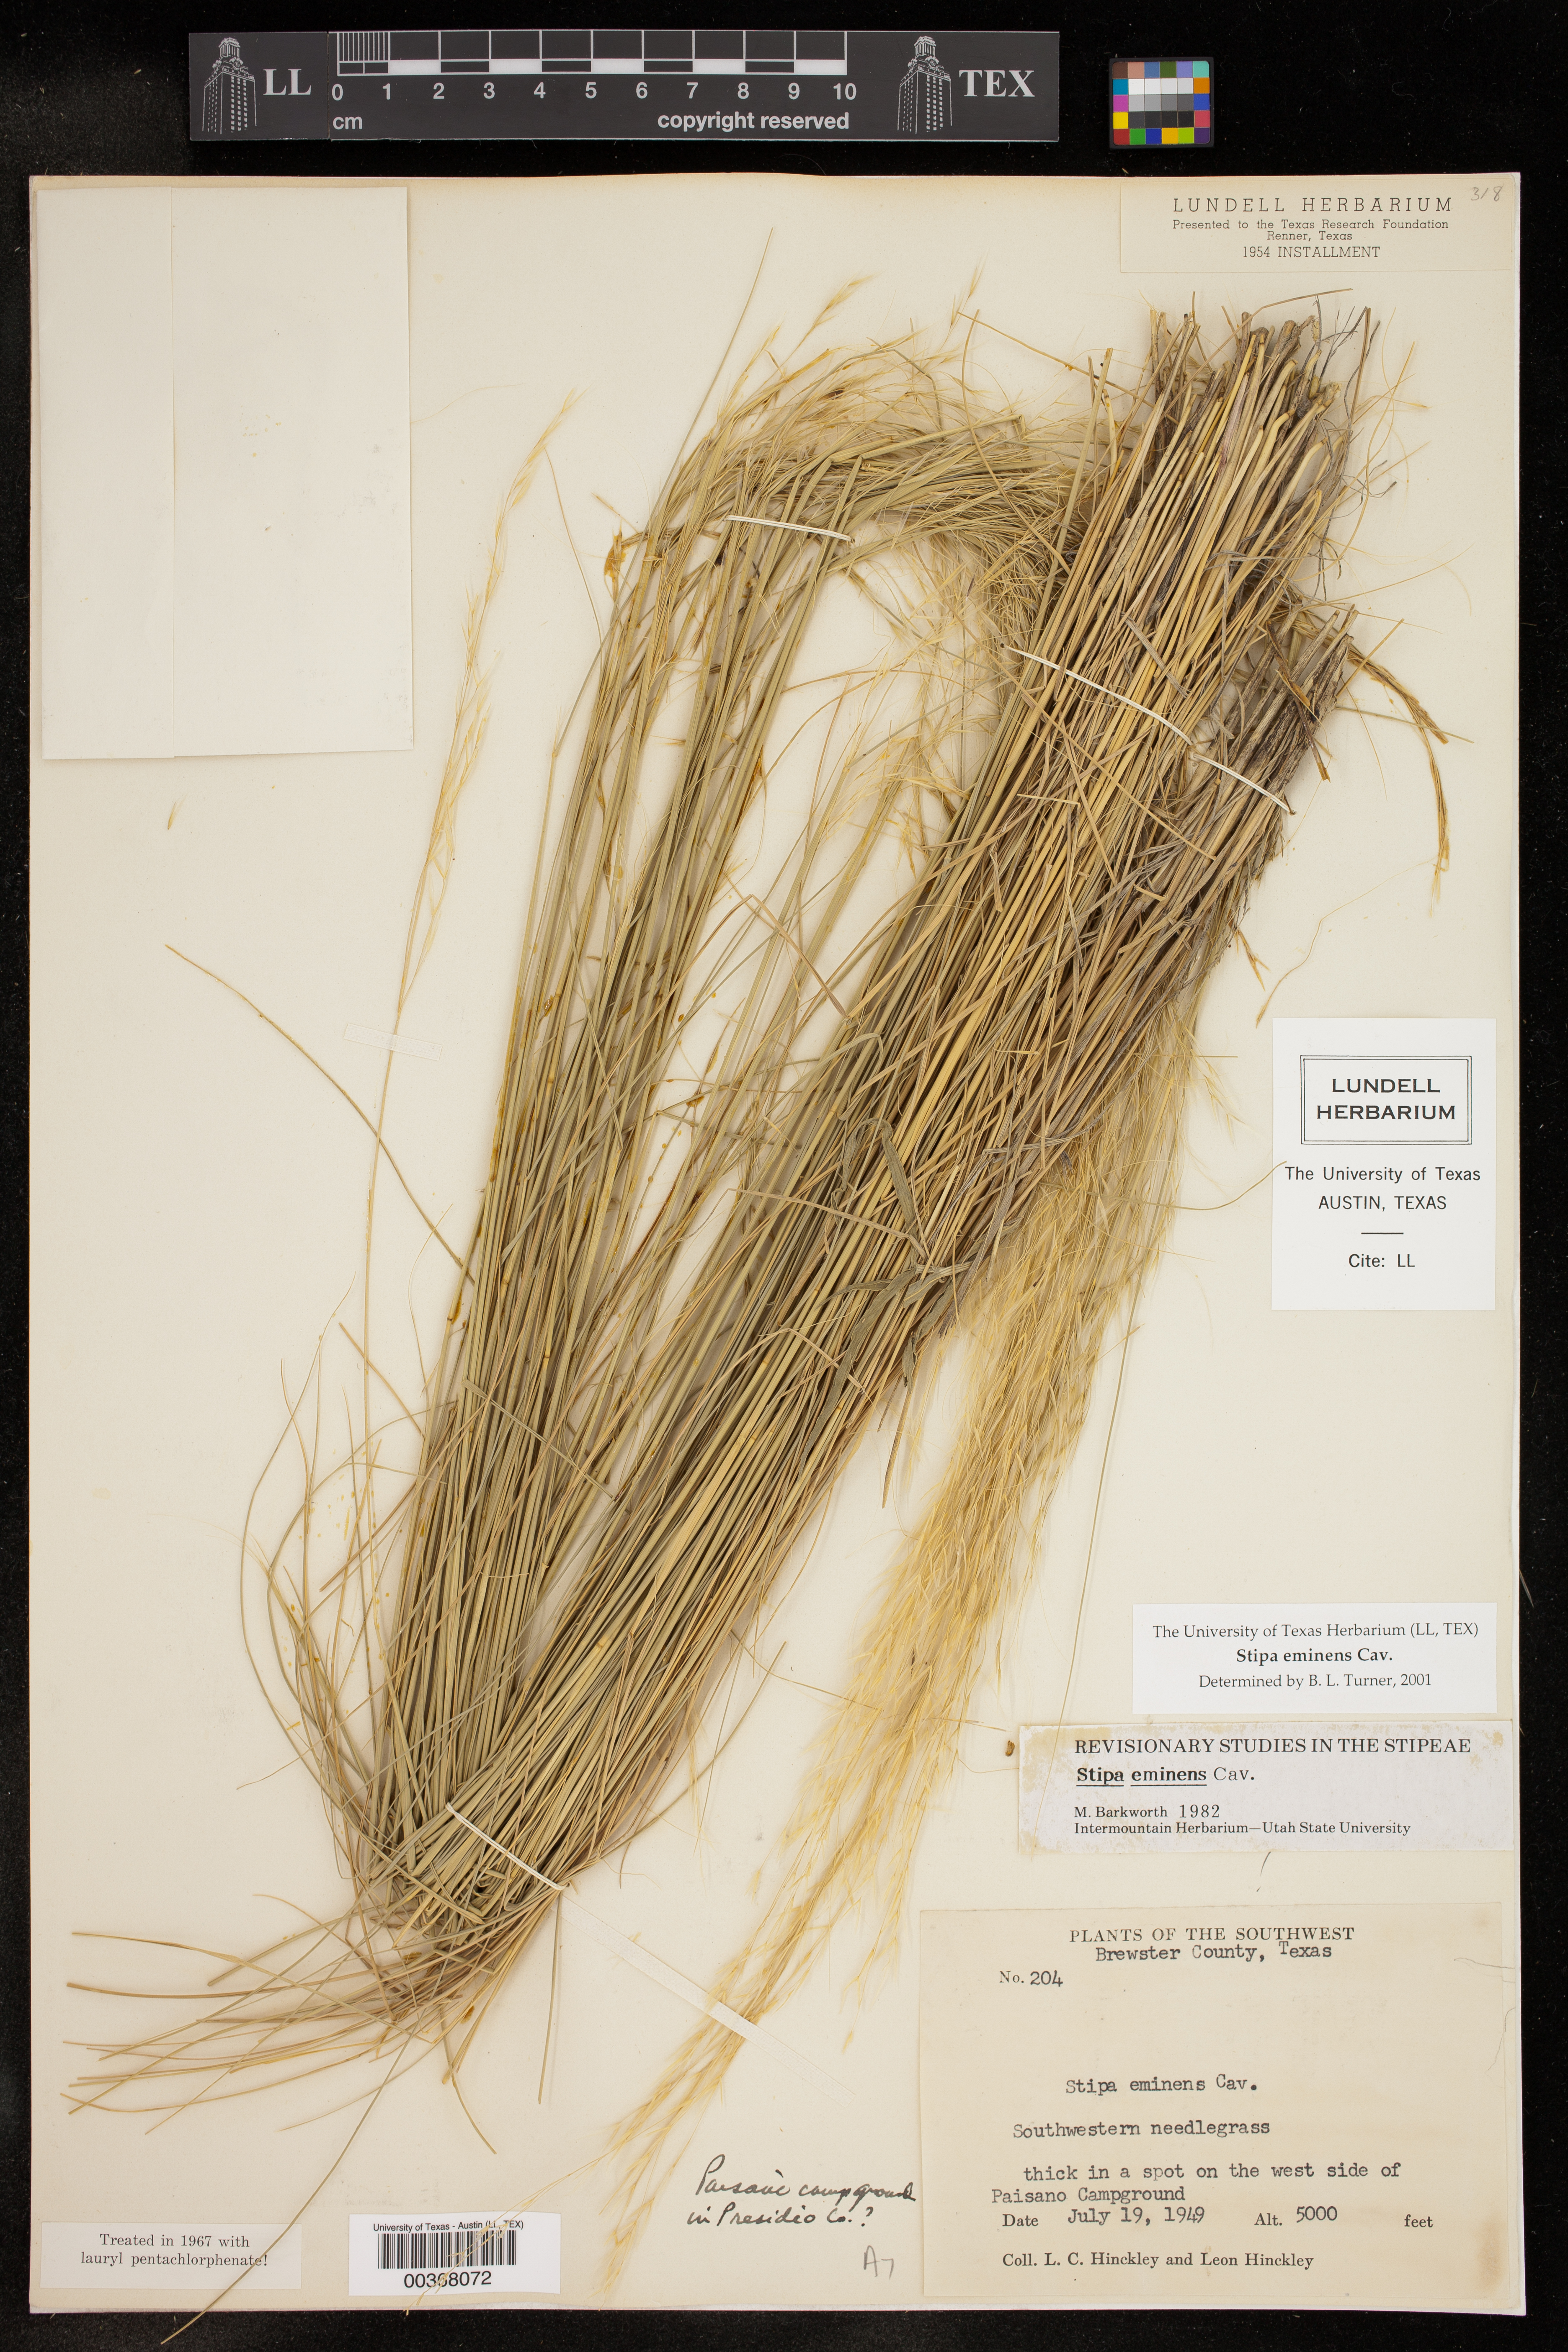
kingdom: Plantae
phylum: Tracheophyta
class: Liliopsida
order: Poales
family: Poaceae
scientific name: Poaceae
